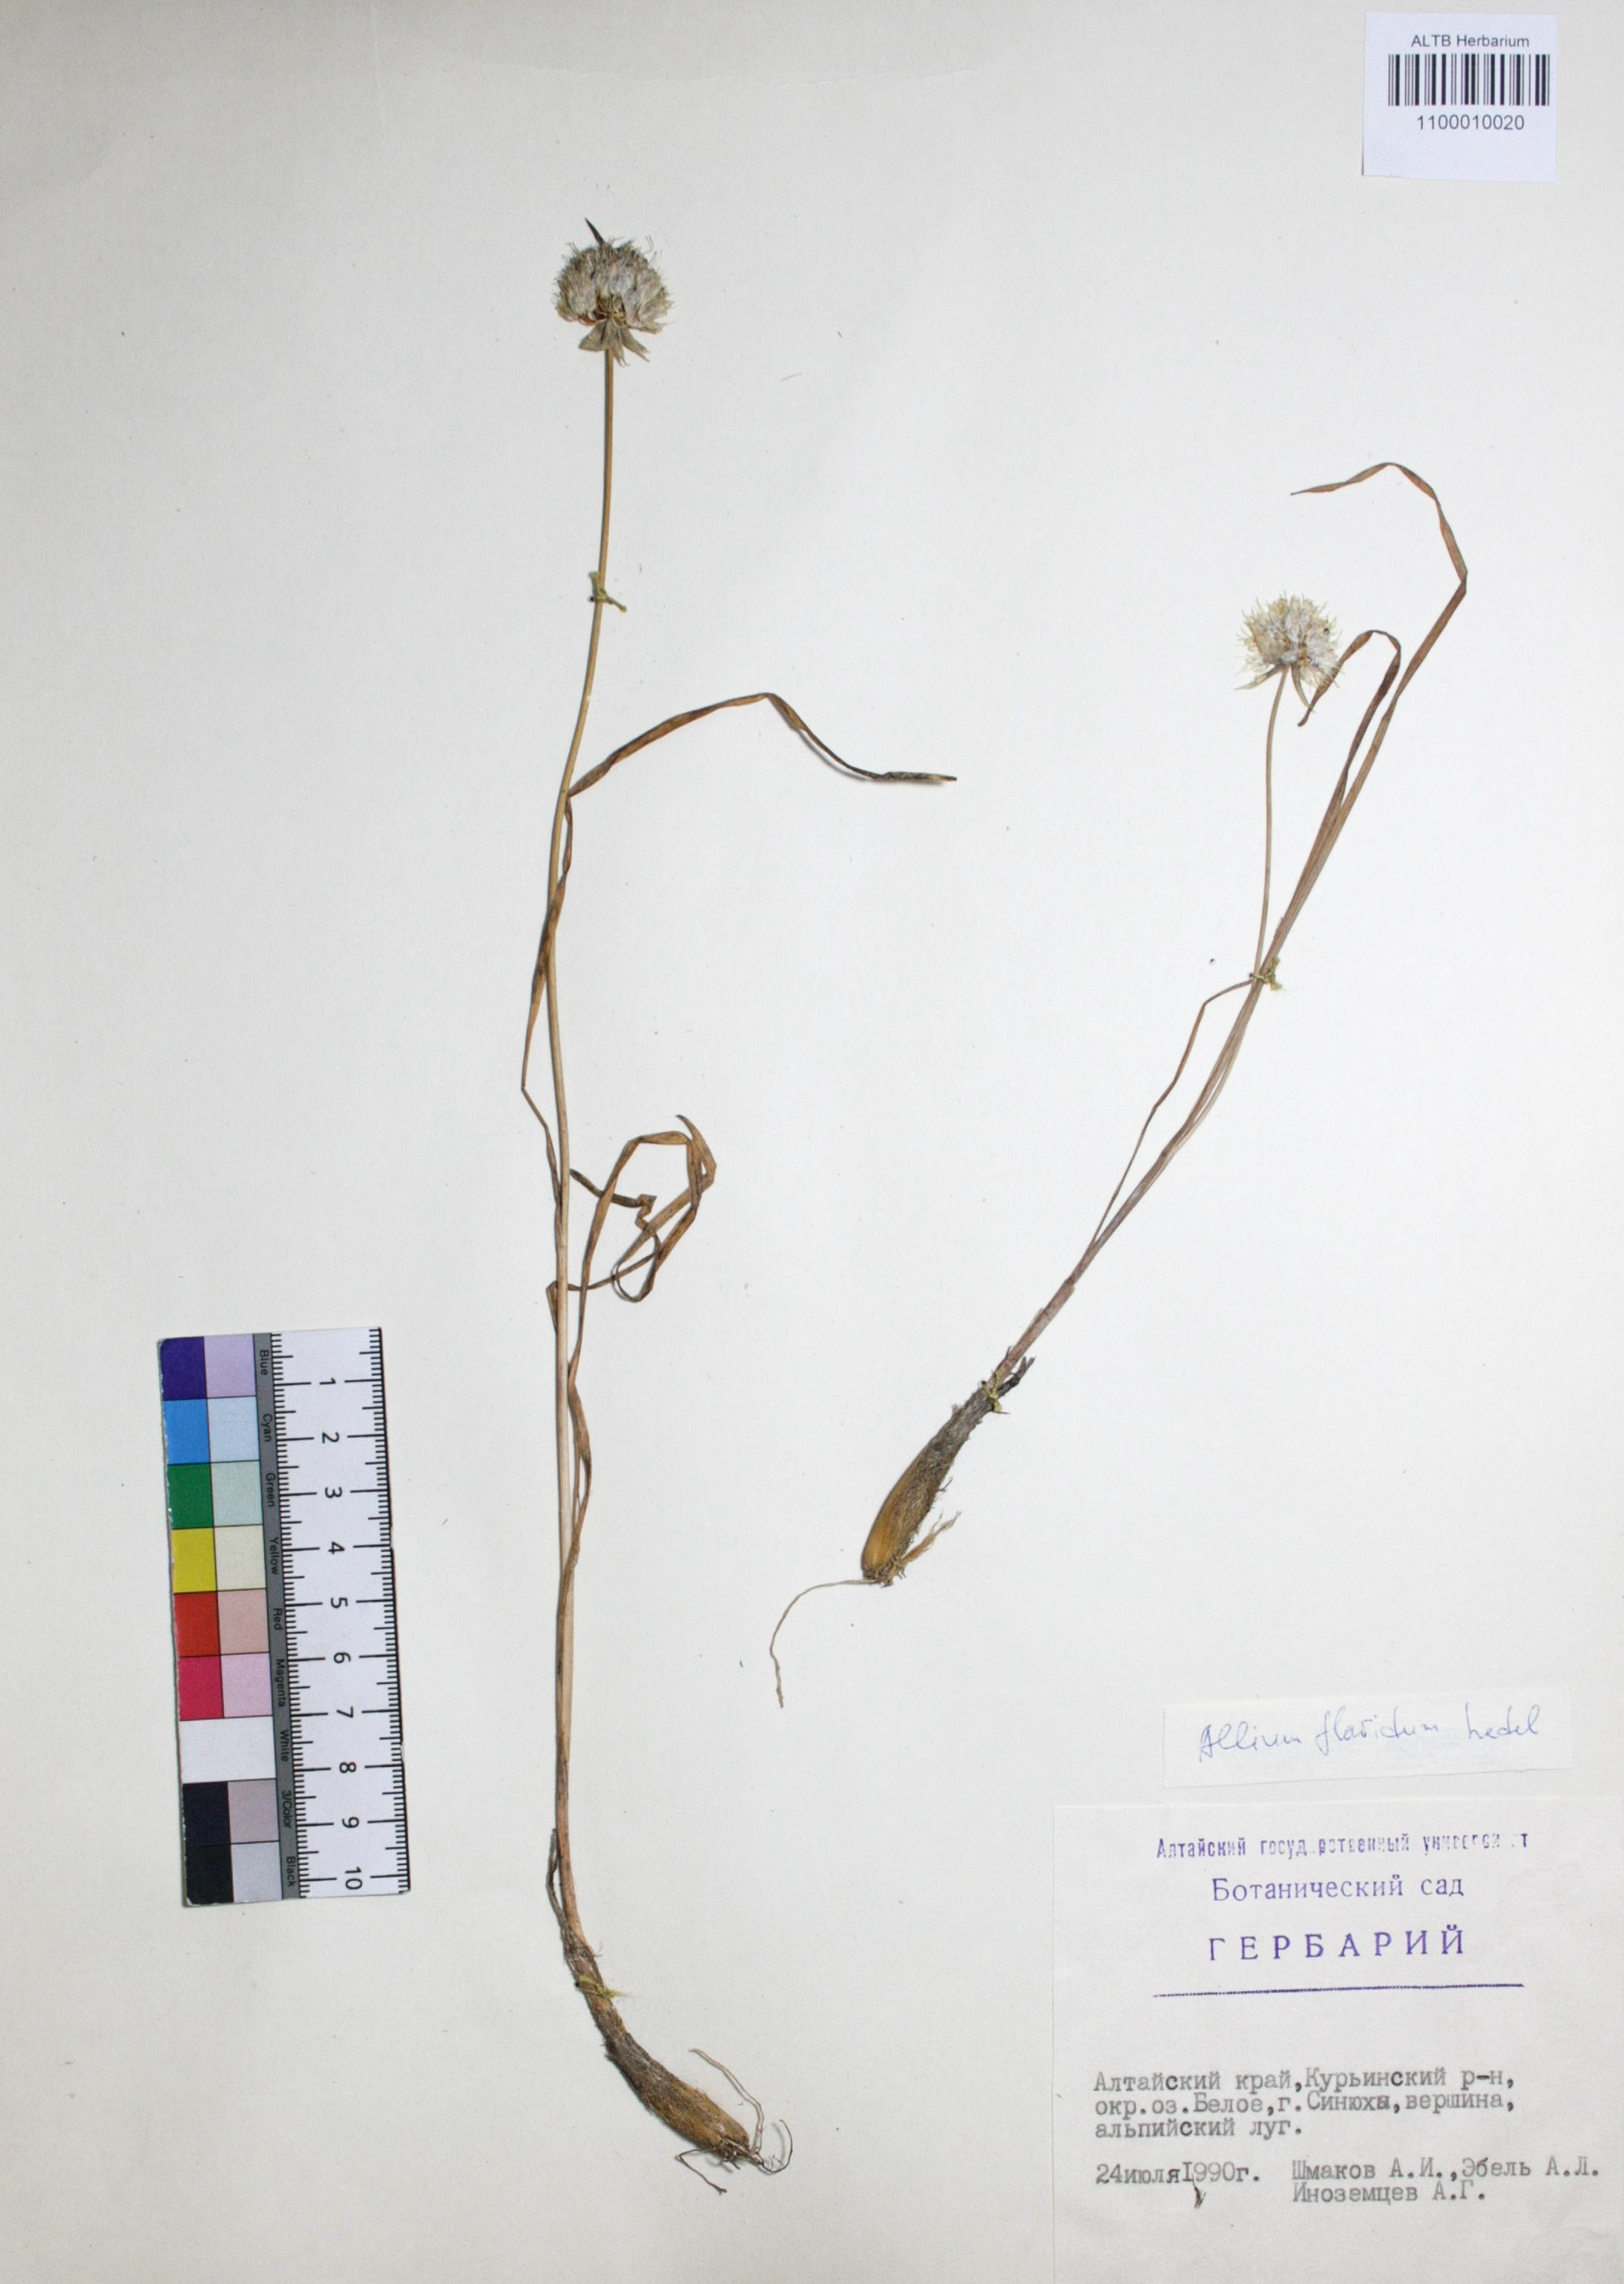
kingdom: Plantae
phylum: Tracheophyta
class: Liliopsida
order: Asparagales
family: Amaryllidaceae
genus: Allium
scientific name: Allium flavidum
